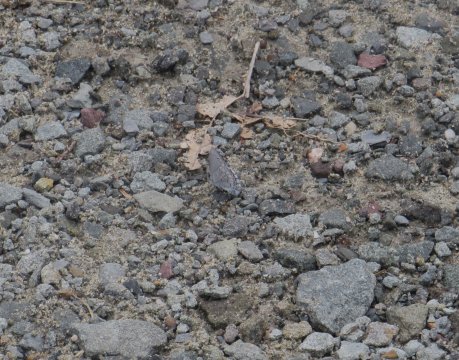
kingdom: Animalia
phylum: Arthropoda
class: Insecta
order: Lepidoptera
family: Lycaenidae
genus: Cyaniris
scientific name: Cyaniris neglecta
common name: Summer Azure
